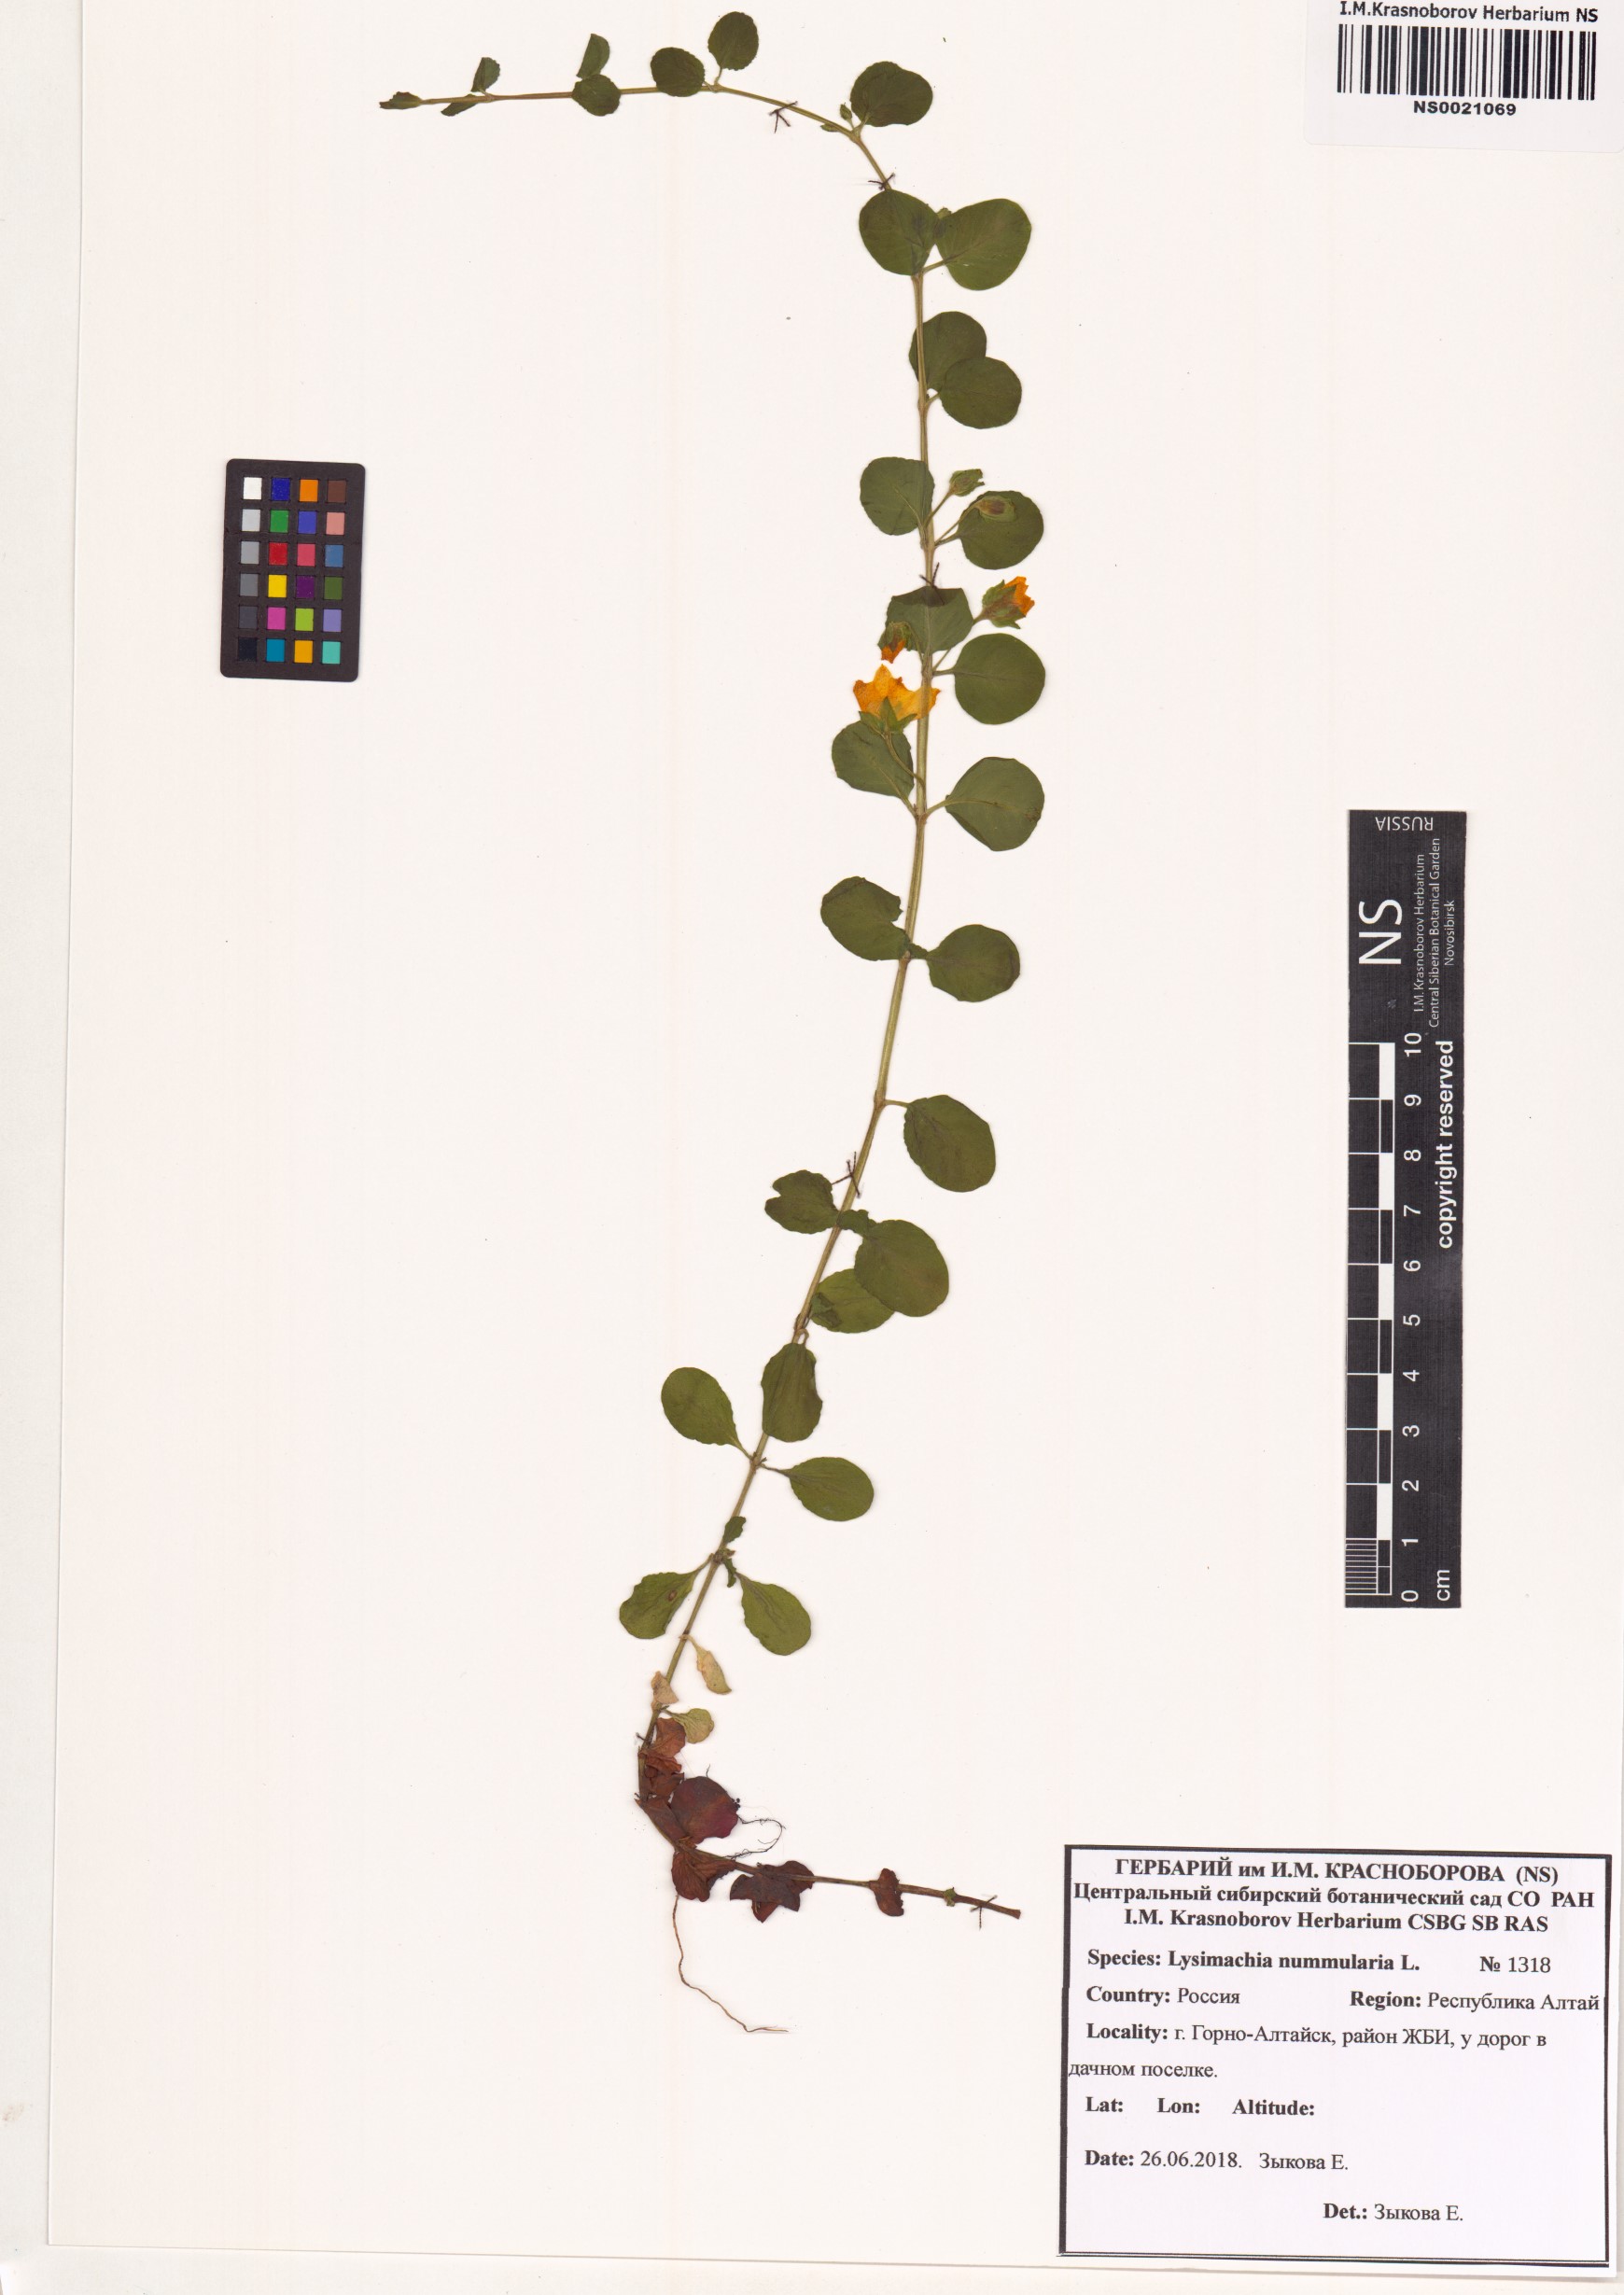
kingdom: Plantae
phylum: Tracheophyta
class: Magnoliopsida
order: Ericales
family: Primulaceae
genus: Lysimachia
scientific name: Lysimachia nummularia
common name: Moneywort
